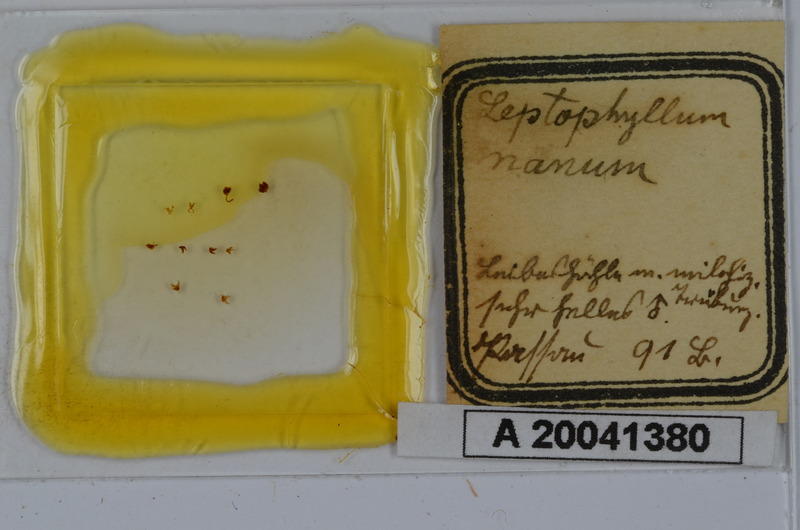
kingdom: Animalia
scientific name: Animalia
